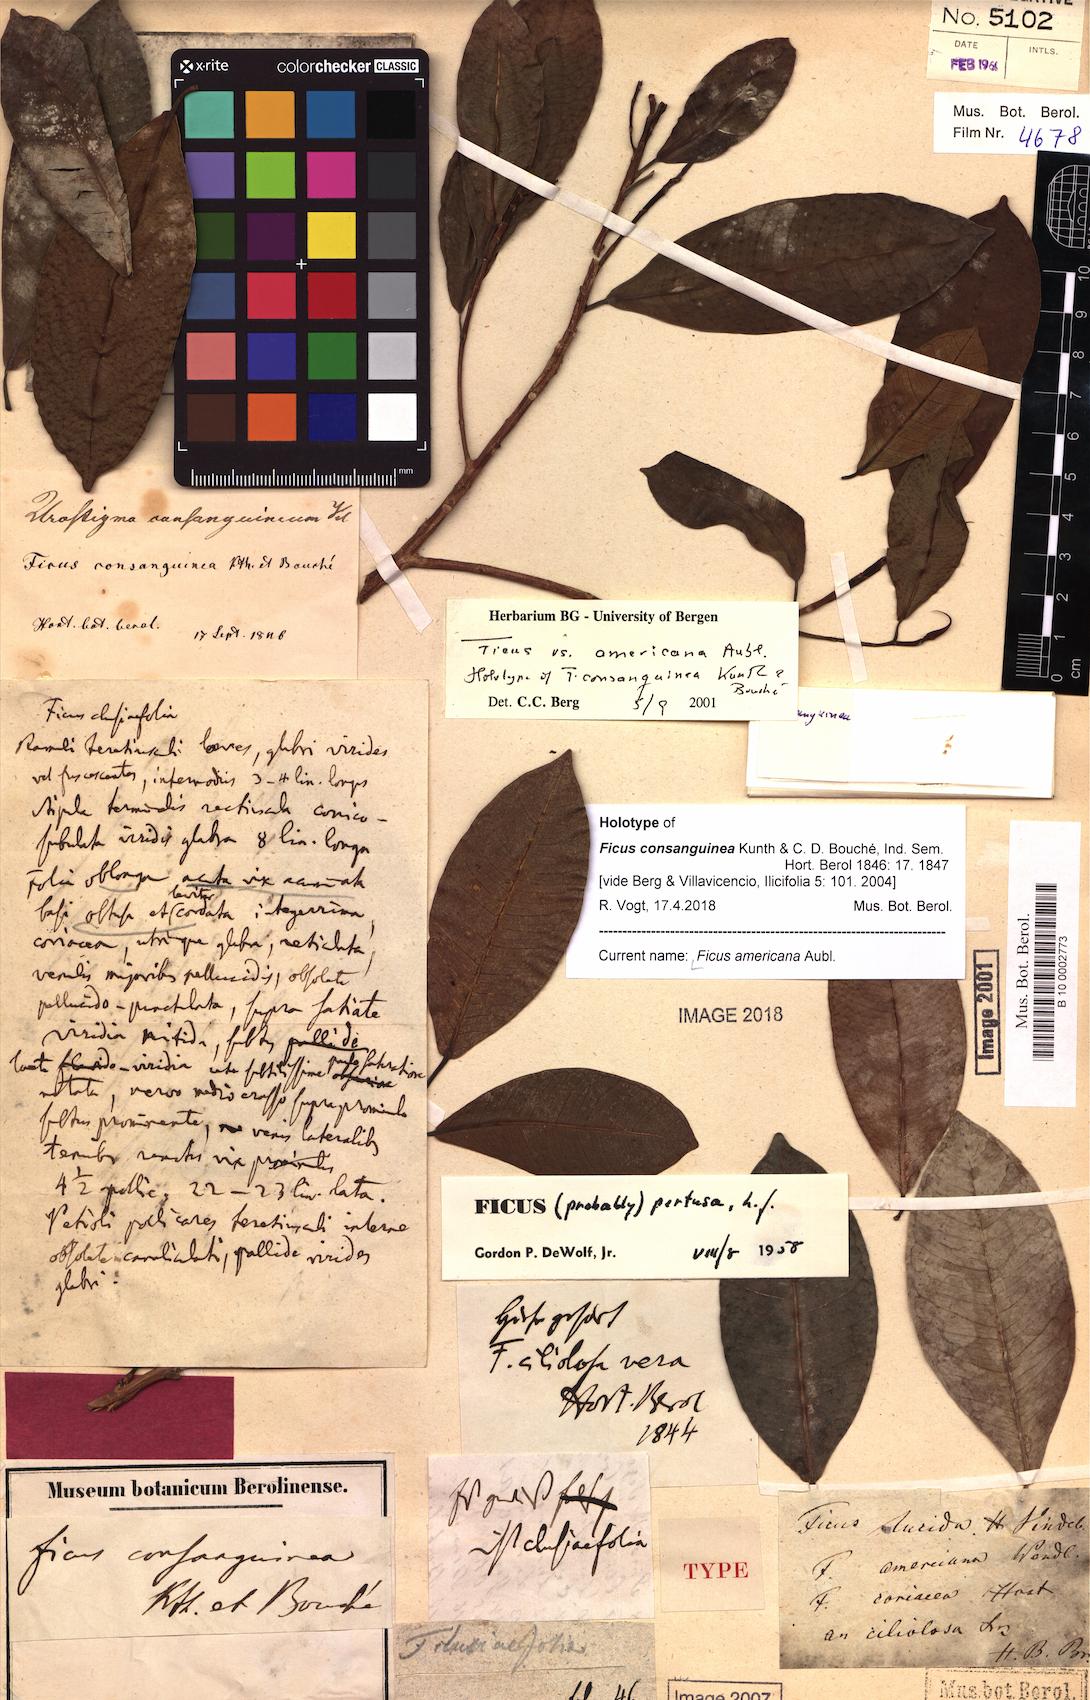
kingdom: Plantae
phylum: Tracheophyta
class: Magnoliopsida
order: Rosales
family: Moraceae
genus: Ficus
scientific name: Ficus americana
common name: Jamaican cherry fig
